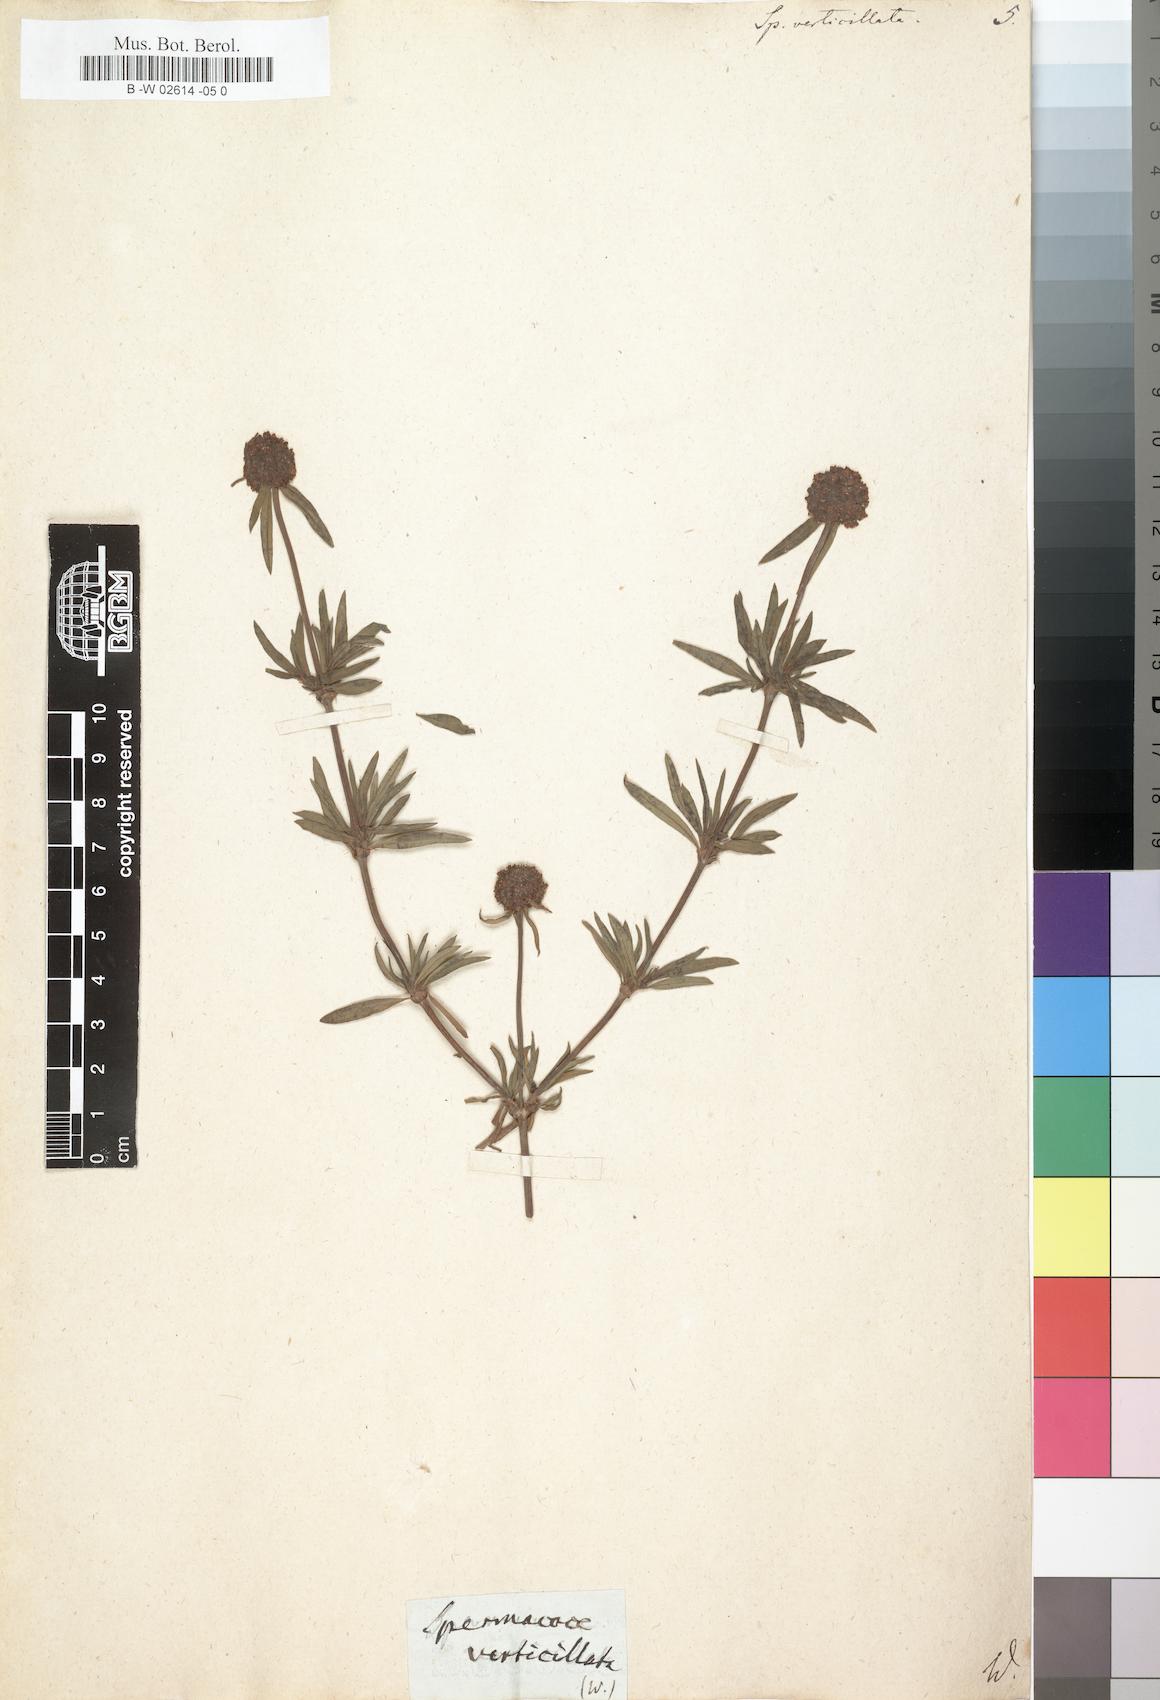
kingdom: Plantae
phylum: Tracheophyta
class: Magnoliopsida
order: Gentianales
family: Rubiaceae
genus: Spermacoce
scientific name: Spermacoce verticillata
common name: Shrubby false buttonweed
